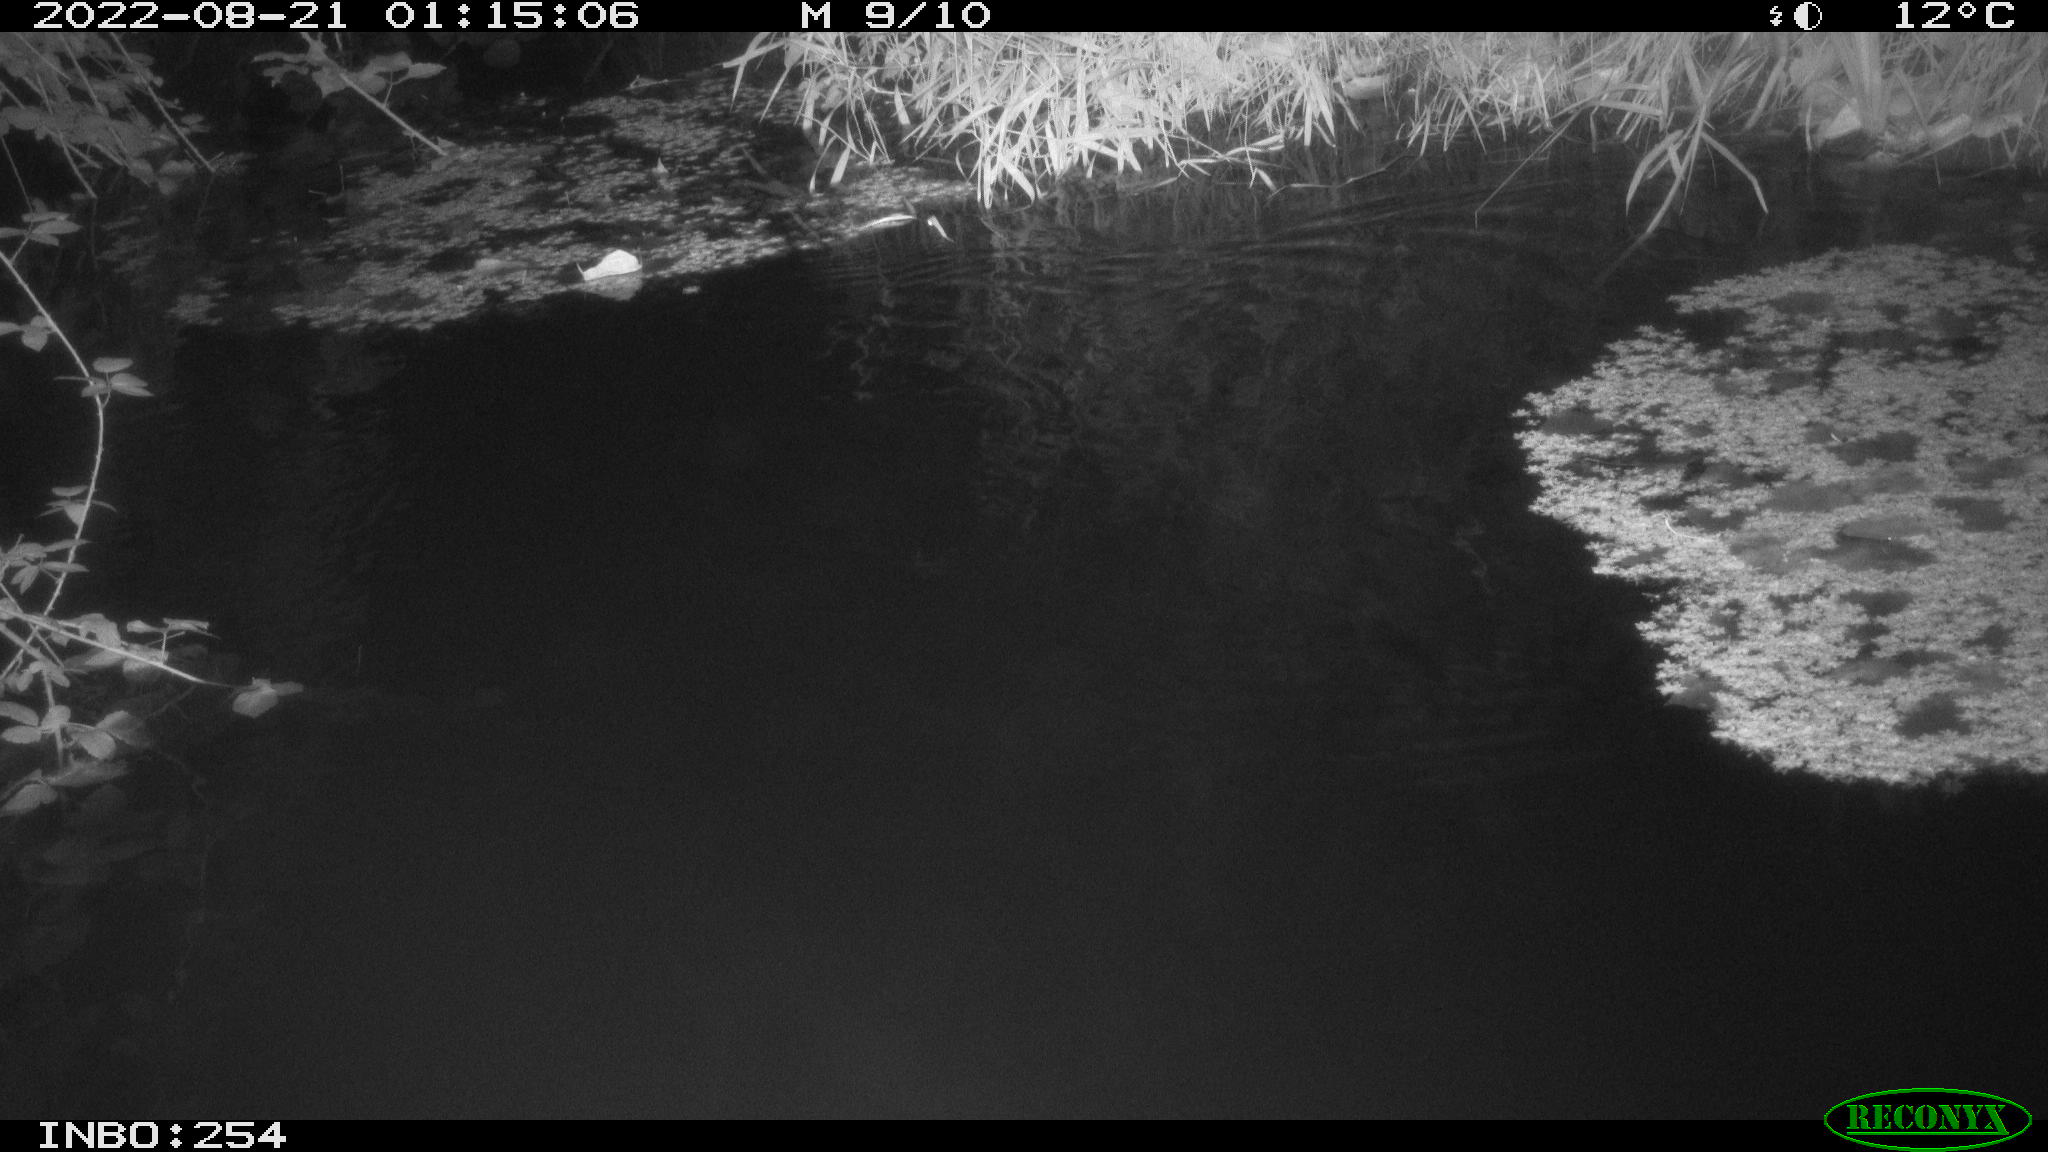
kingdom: Animalia
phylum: Chordata
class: Mammalia
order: Rodentia
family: Muridae
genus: Rattus
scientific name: Rattus norvegicus
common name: Brown rat
